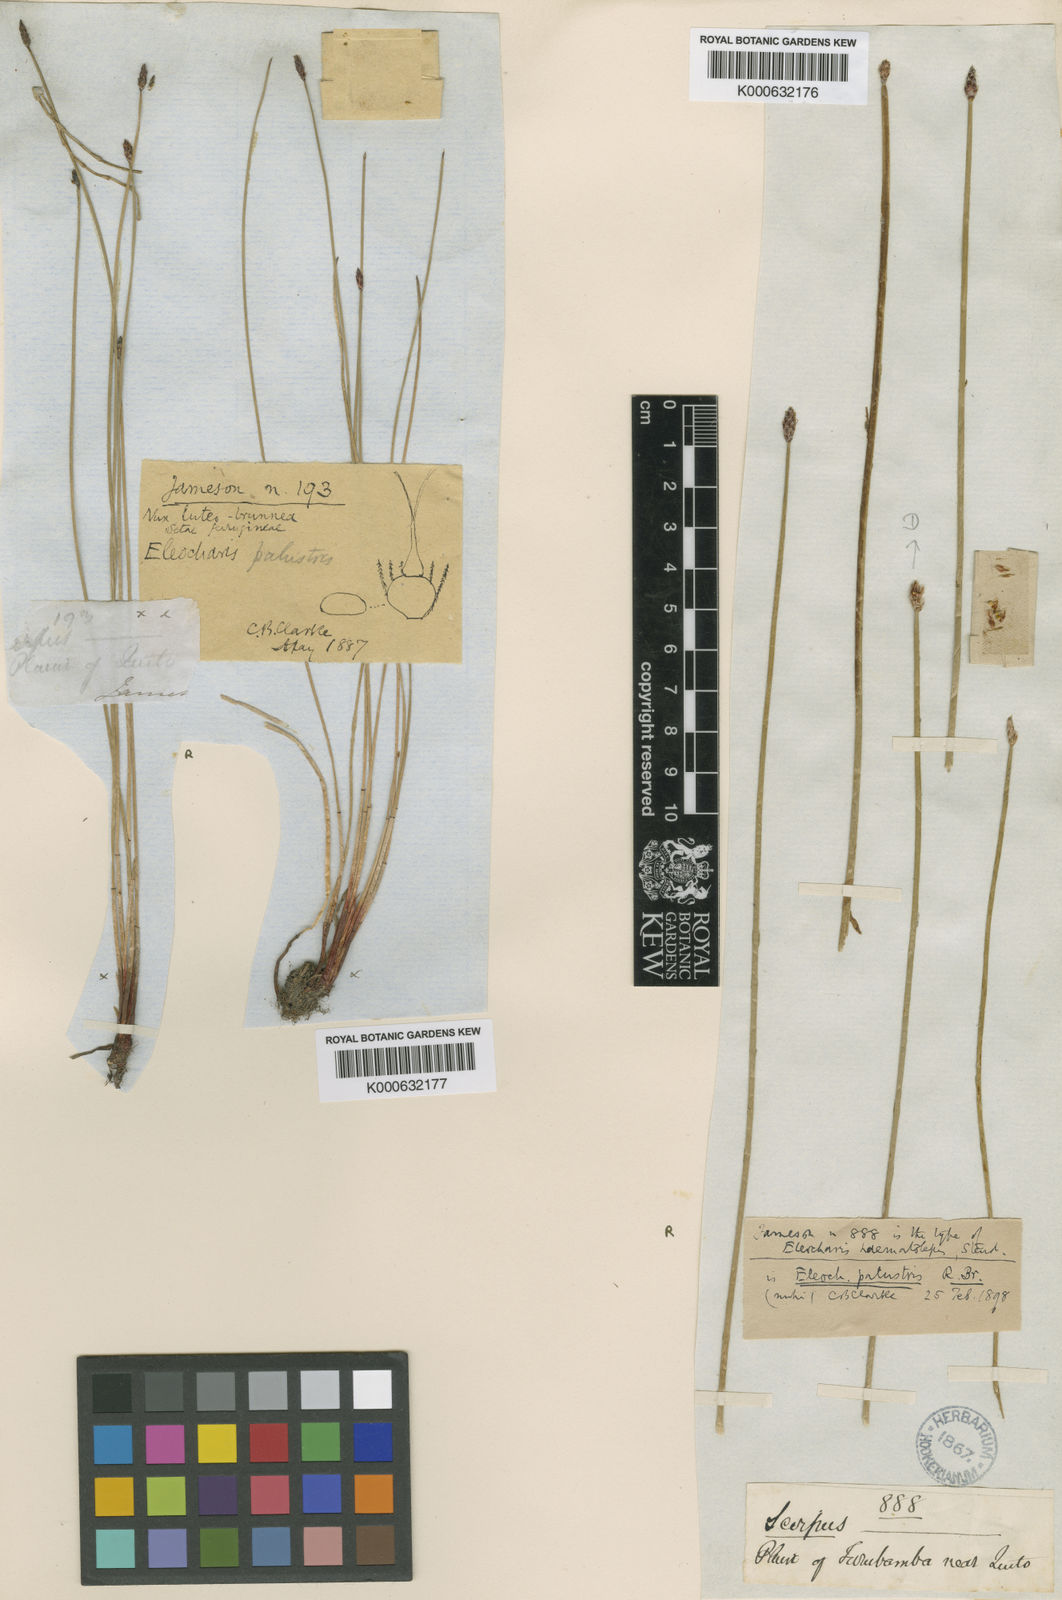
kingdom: Plantae
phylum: Tracheophyta
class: Liliopsida
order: Poales
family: Cyperaceae
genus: Eleocharis
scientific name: Eleocharis montana
